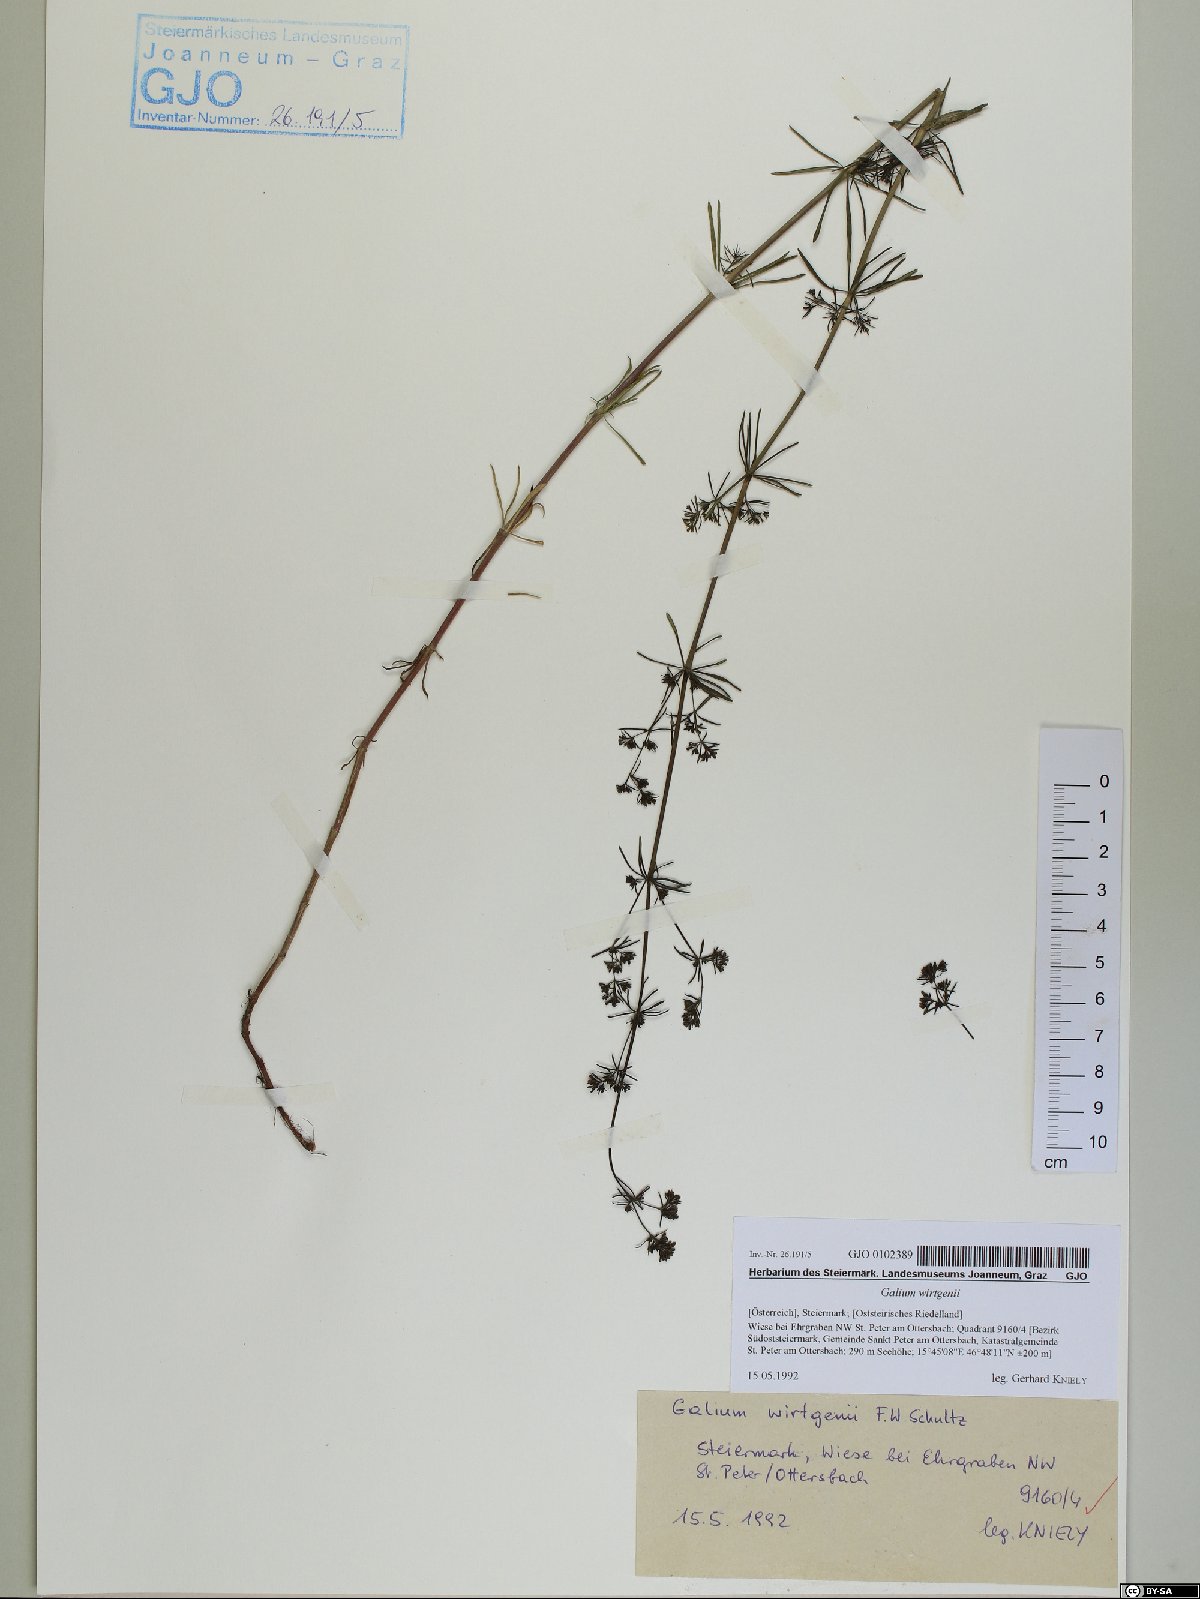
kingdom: Plantae
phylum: Tracheophyta
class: Magnoliopsida
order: Gentianales
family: Rubiaceae
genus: Galium
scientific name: Galium verum
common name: Lady's bedstraw
